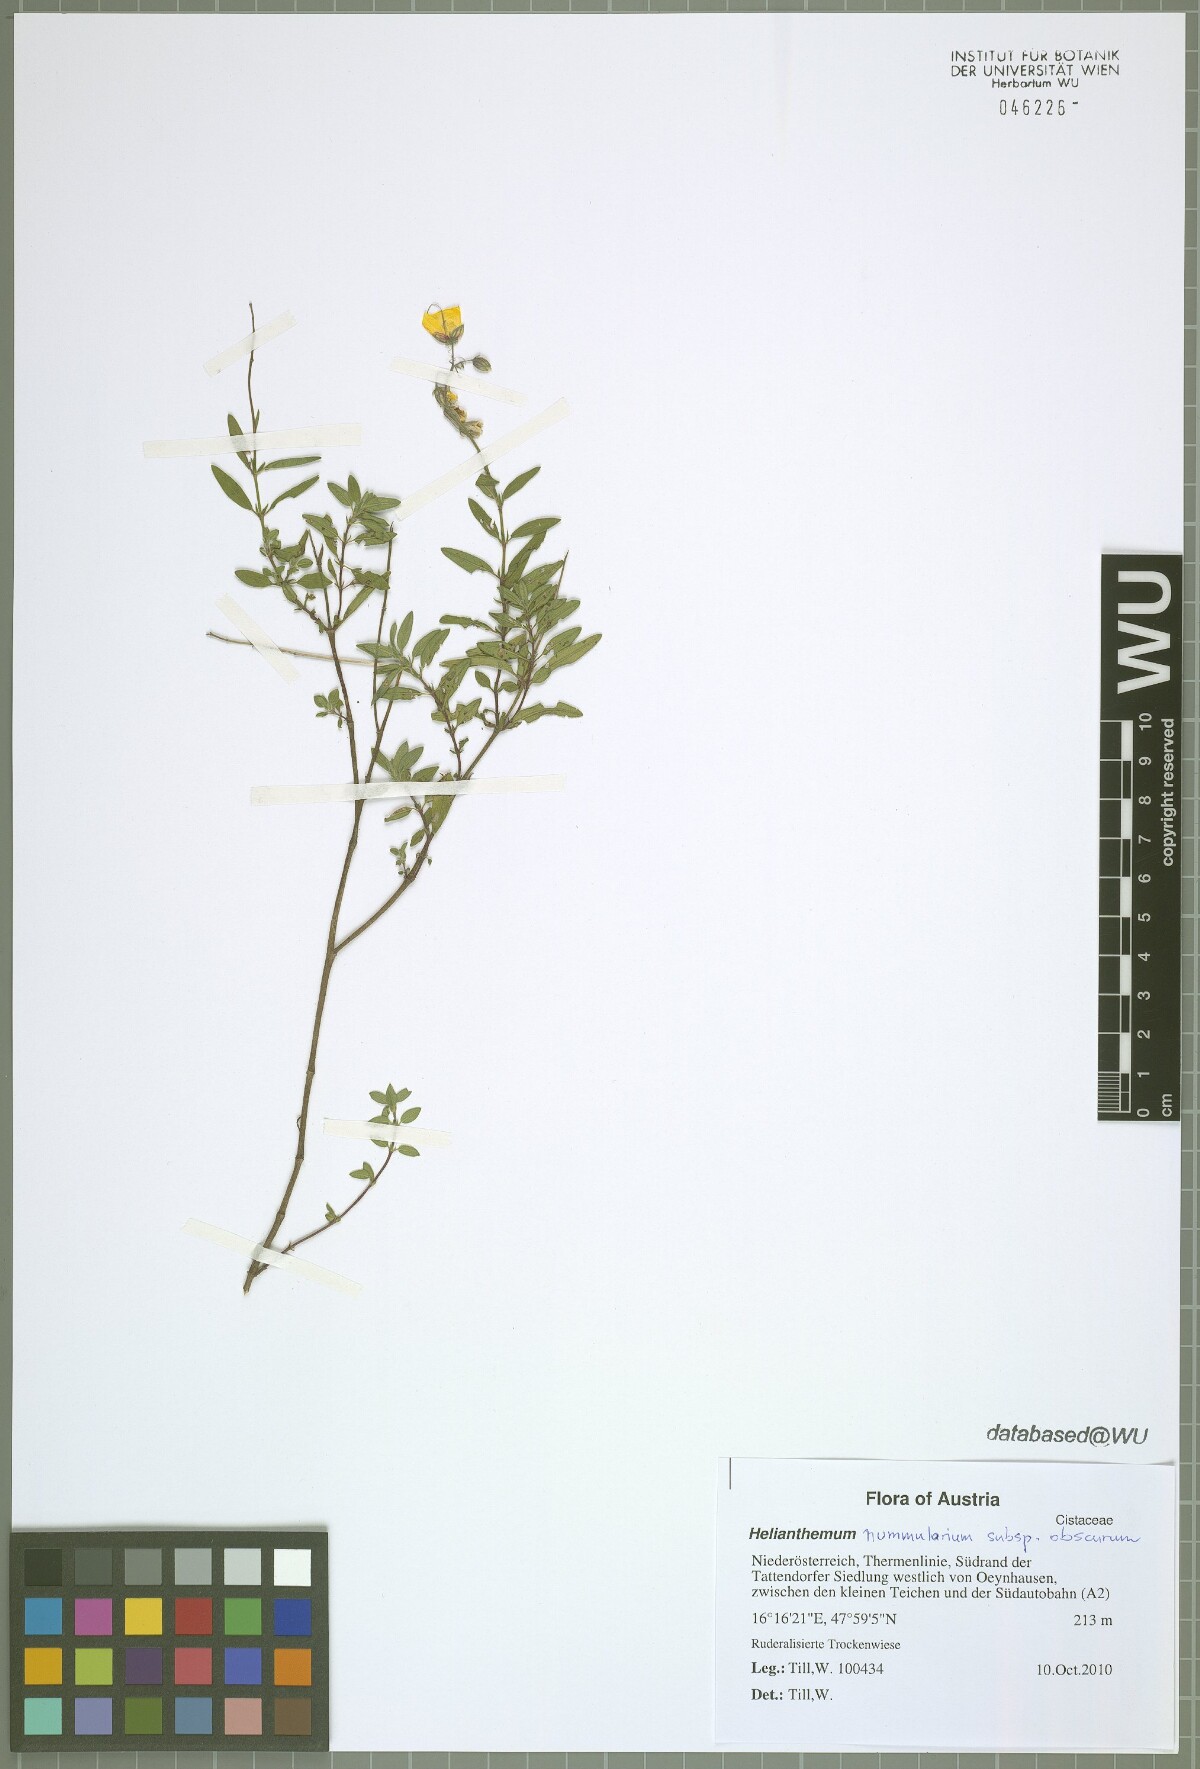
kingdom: Plantae
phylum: Tracheophyta
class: Magnoliopsida
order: Malvales
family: Cistaceae
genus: Helianthemum
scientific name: Helianthemum nummularium
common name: Common rock-rose
